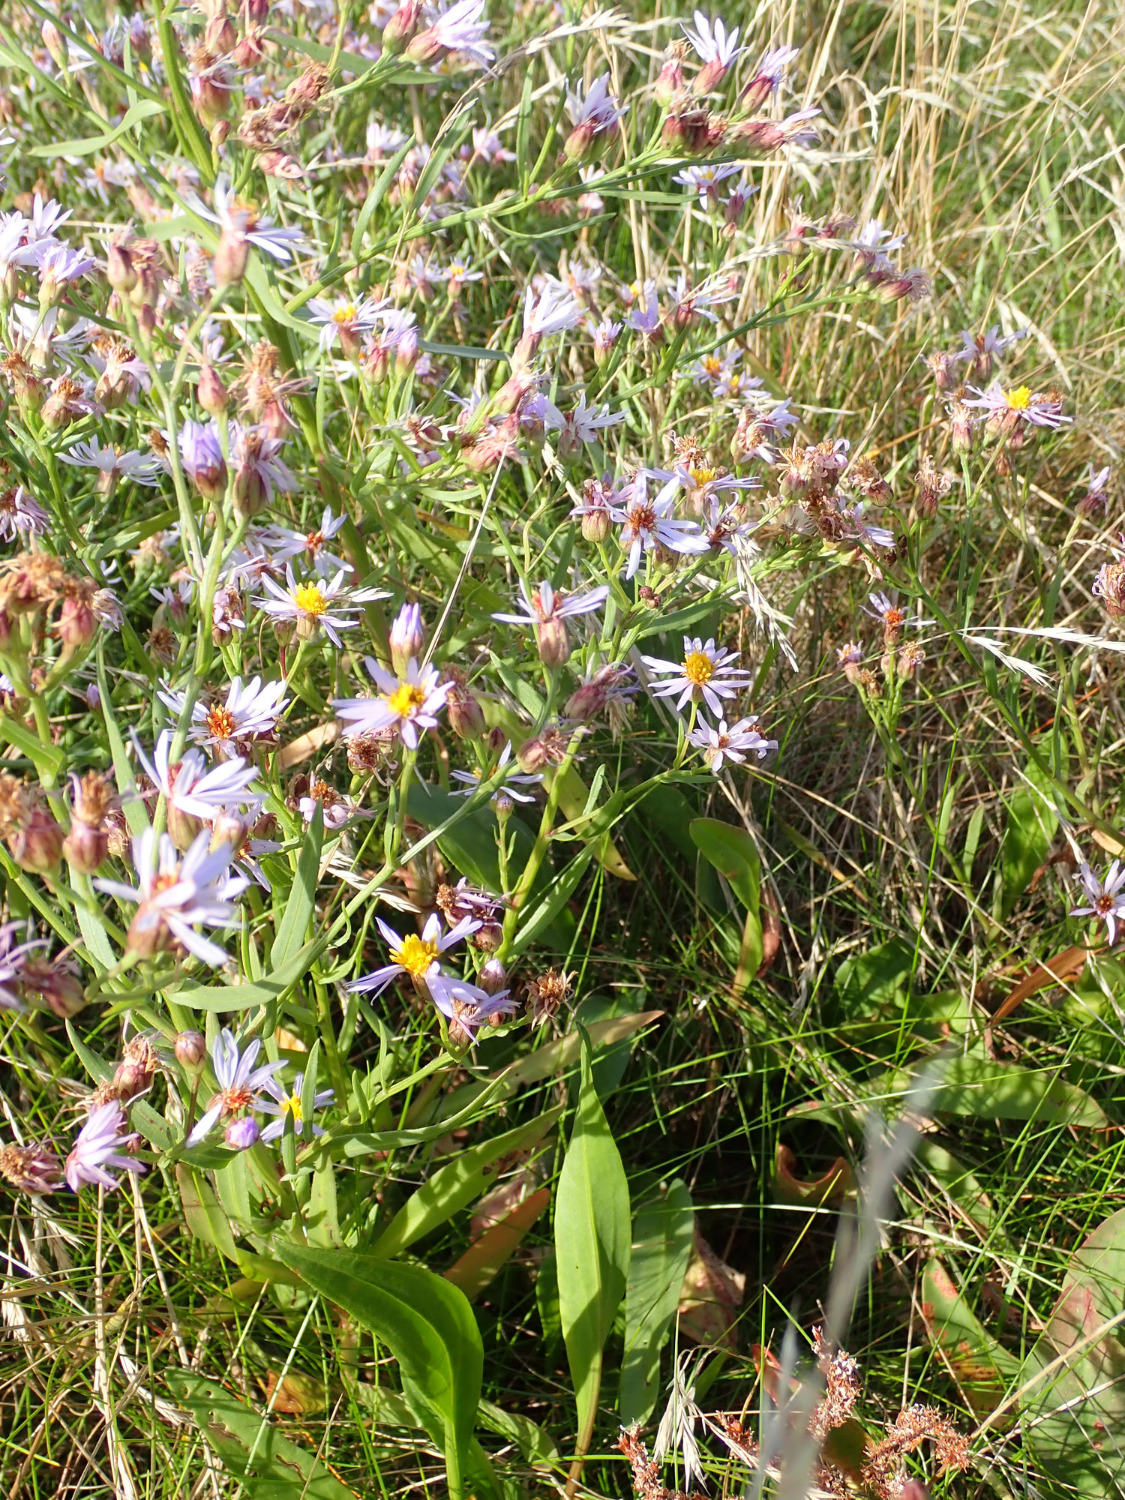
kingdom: Plantae
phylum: Tracheophyta
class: Magnoliopsida
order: Asterales
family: Asteraceae
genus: Tripolium
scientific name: Tripolium pannonicum
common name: Strandasters
